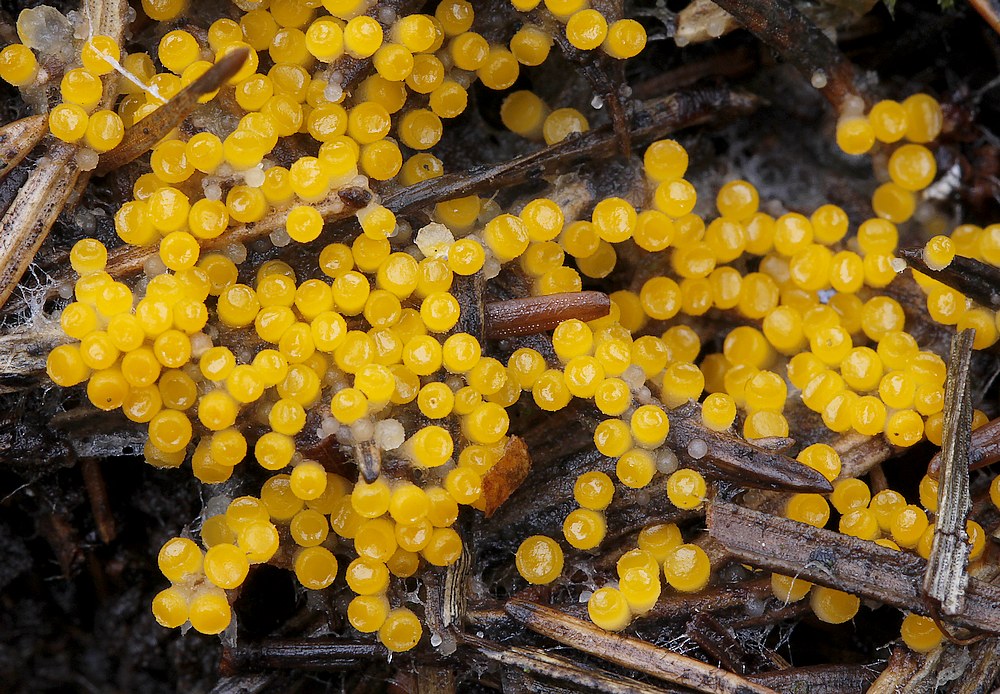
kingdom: Fungi
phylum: Ascomycota
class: Pezizomycetes
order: Pezizales
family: Pyronemataceae
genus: Byssonectria
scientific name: Byssonectria terrestris
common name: hjortebæger
